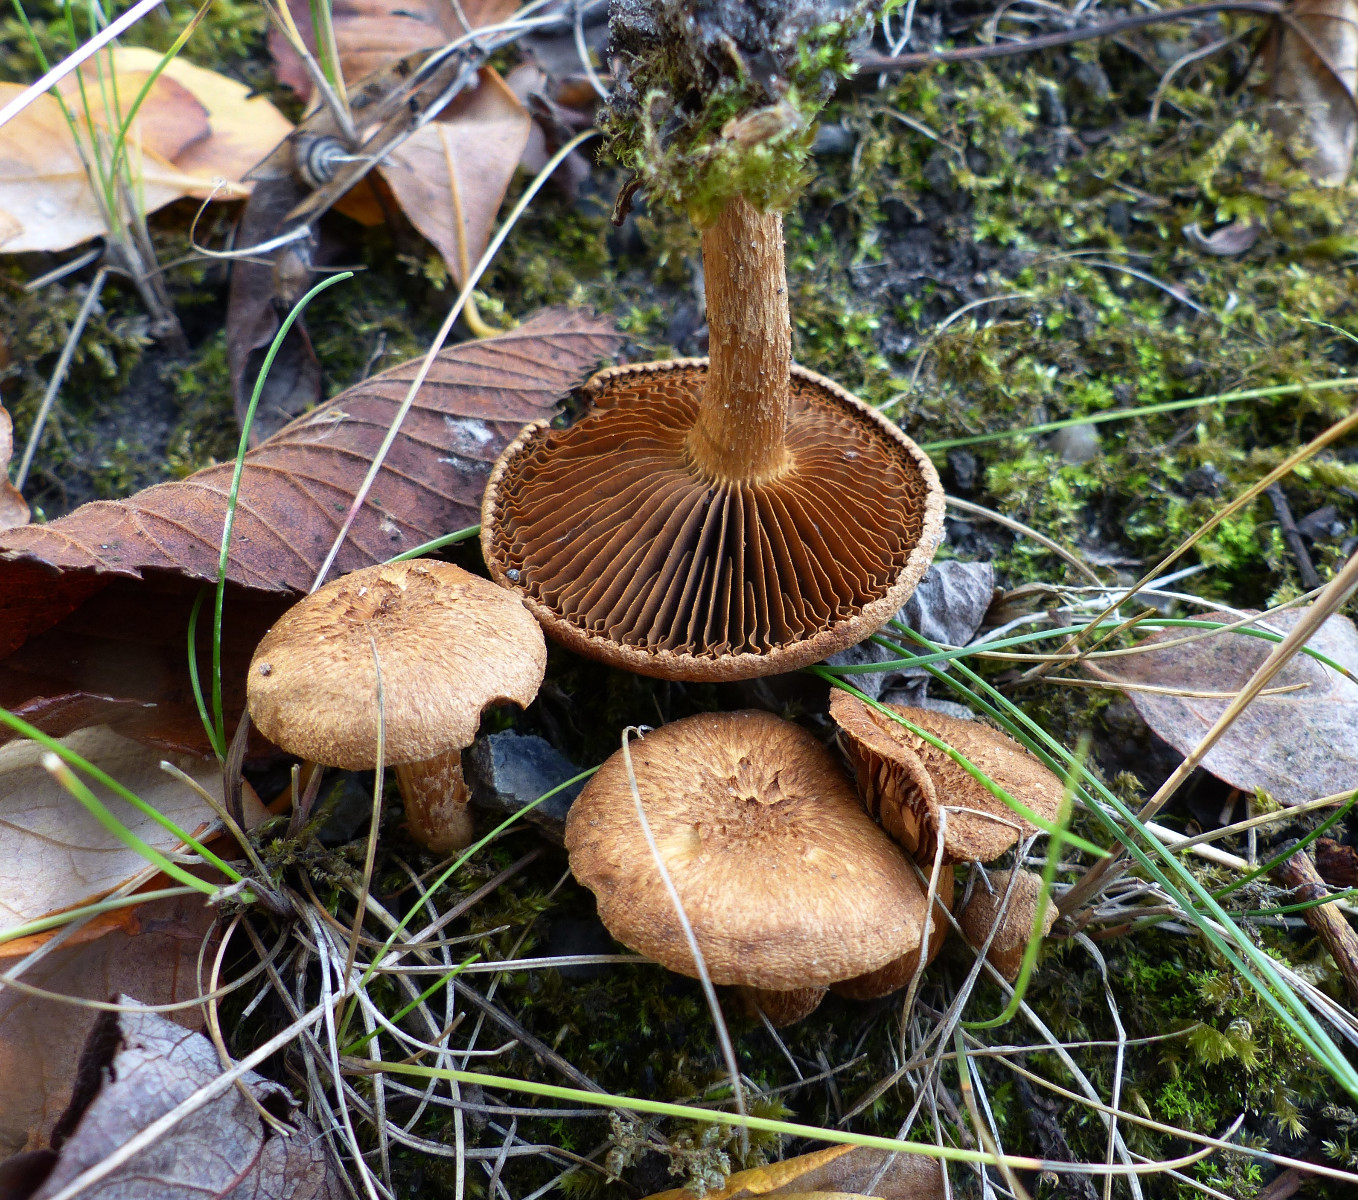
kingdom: Fungi
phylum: Basidiomycota
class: Agaricomycetes
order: Agaricales
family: Inocybaceae
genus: Inocybe
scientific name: Inocybe dulcamara
